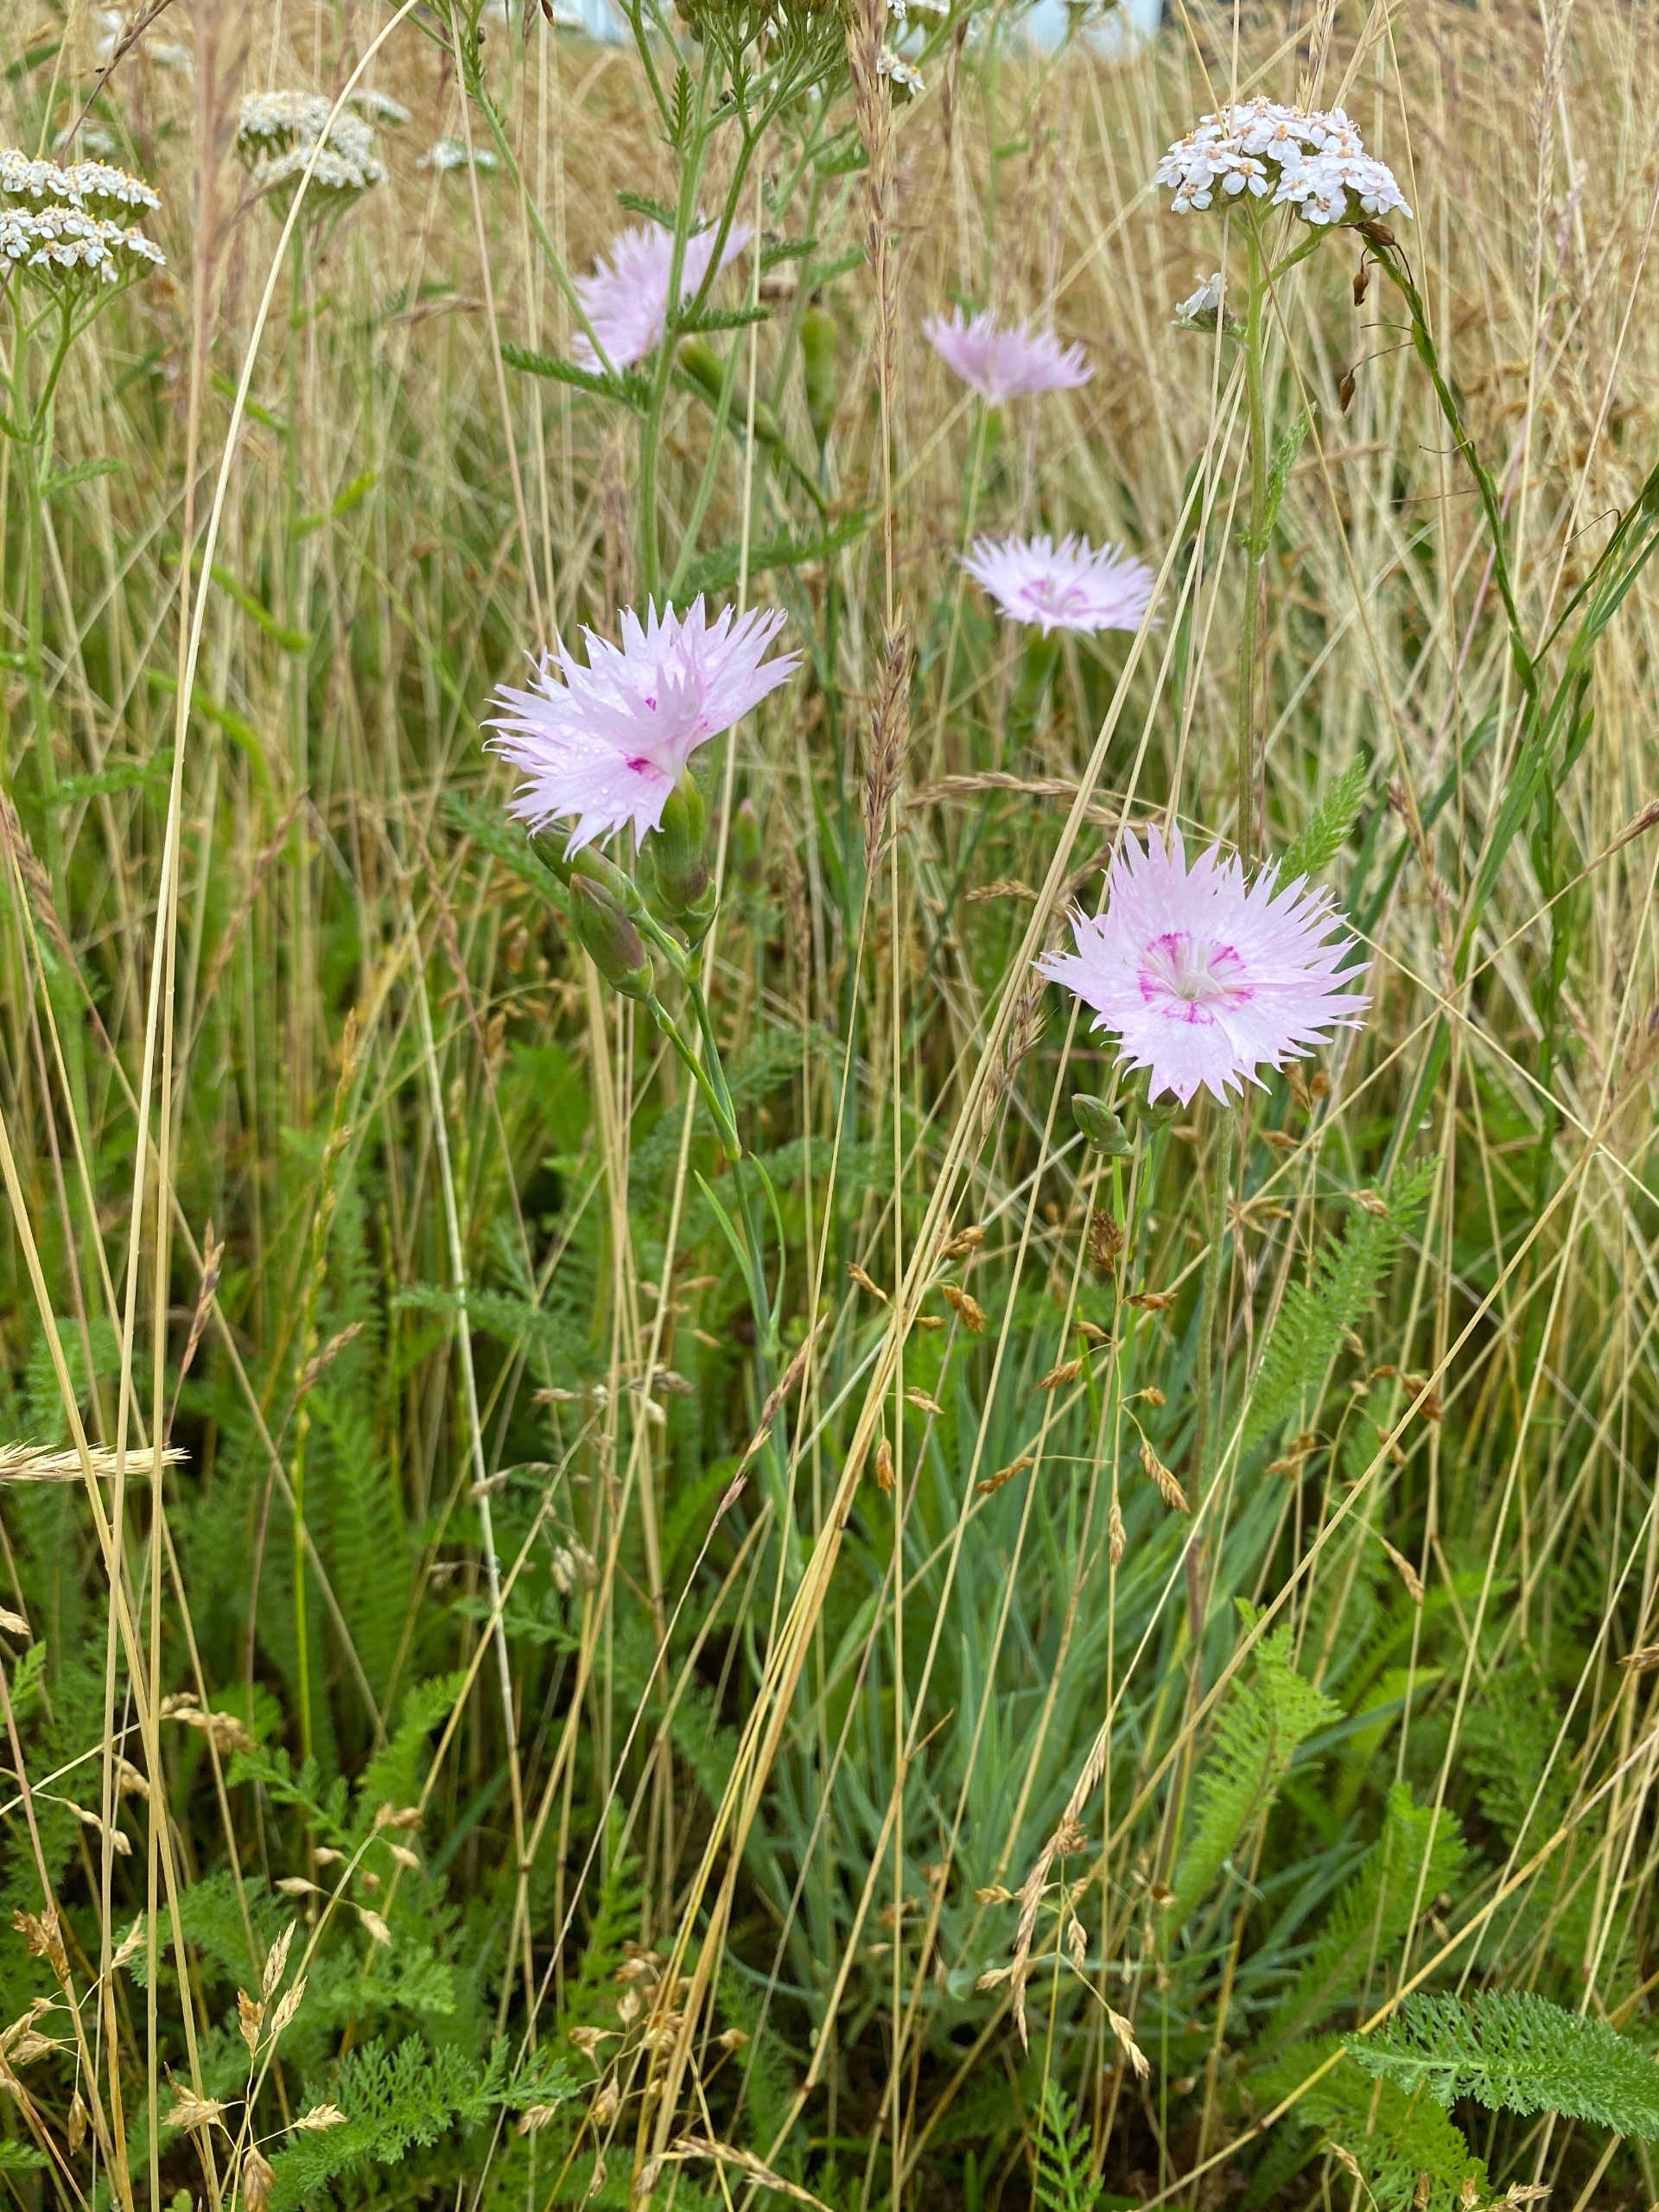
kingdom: Plantae
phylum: Tracheophyta
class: Magnoliopsida
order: Caryophyllales
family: Caryophyllaceae
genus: Dianthus
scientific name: Dianthus hyssopifolius
